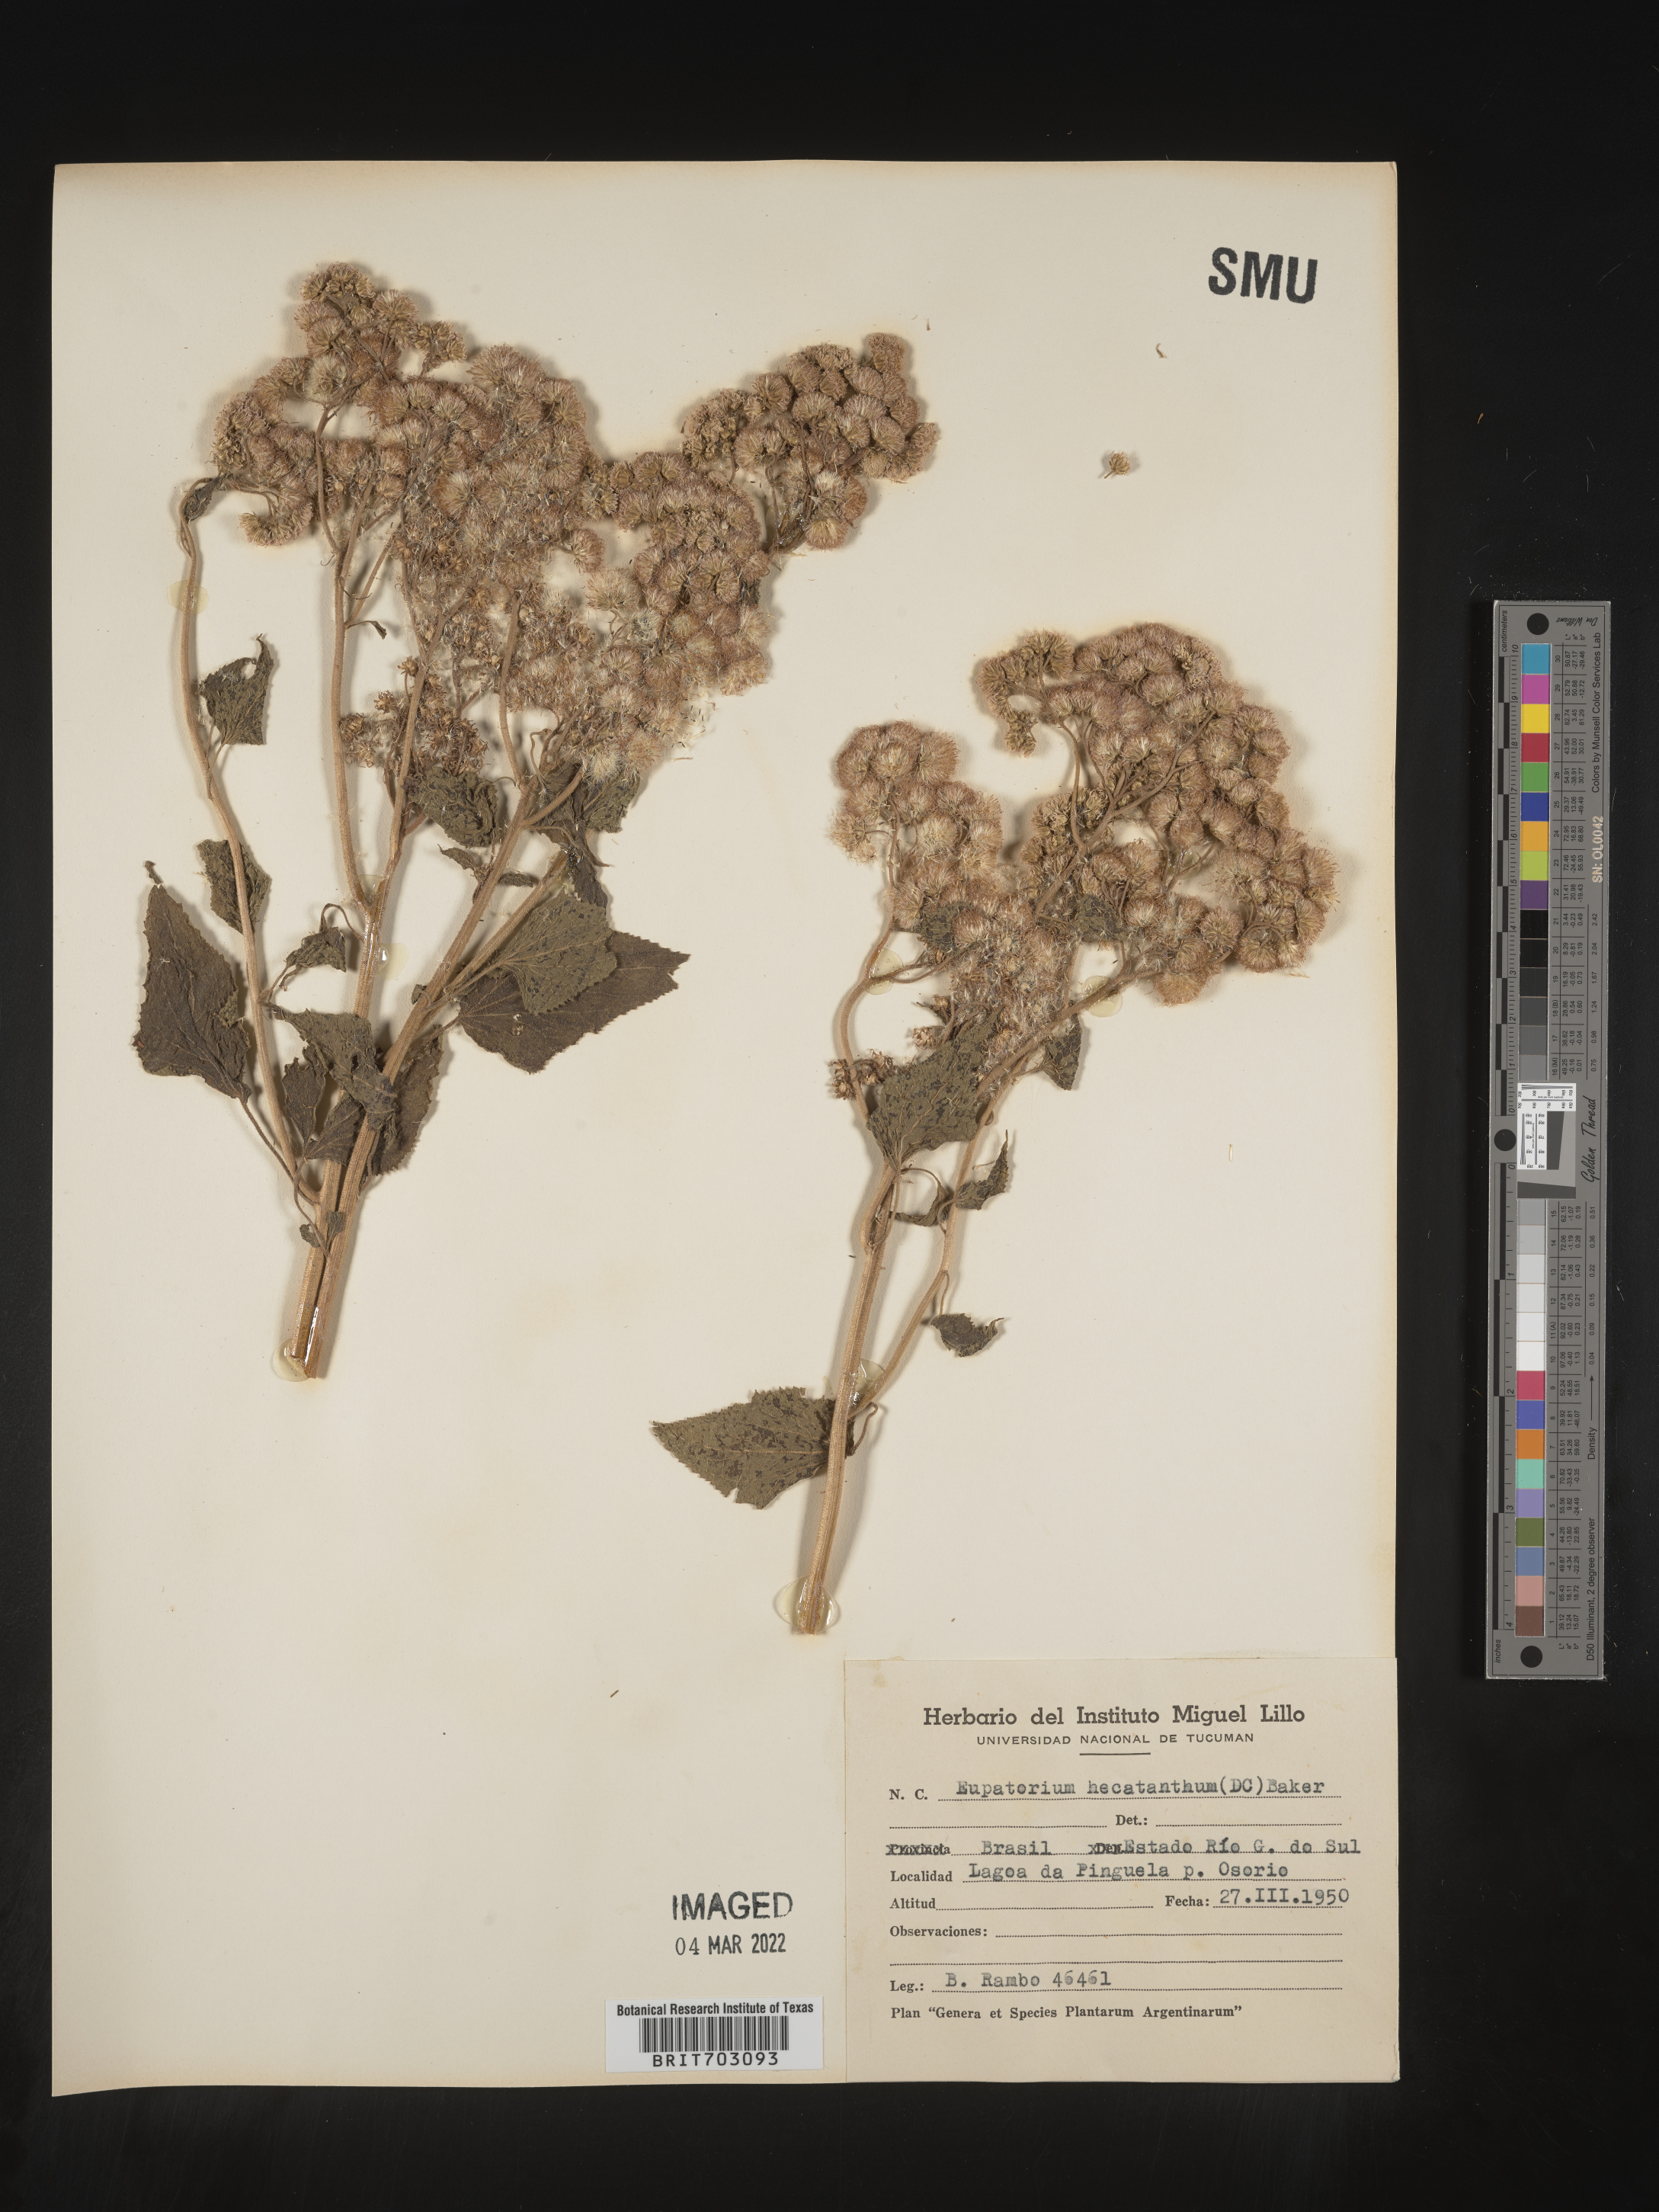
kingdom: Plantae
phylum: Tracheophyta
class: Magnoliopsida
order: Asterales
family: Asteraceae
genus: Eupatorium
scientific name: Eupatorium
